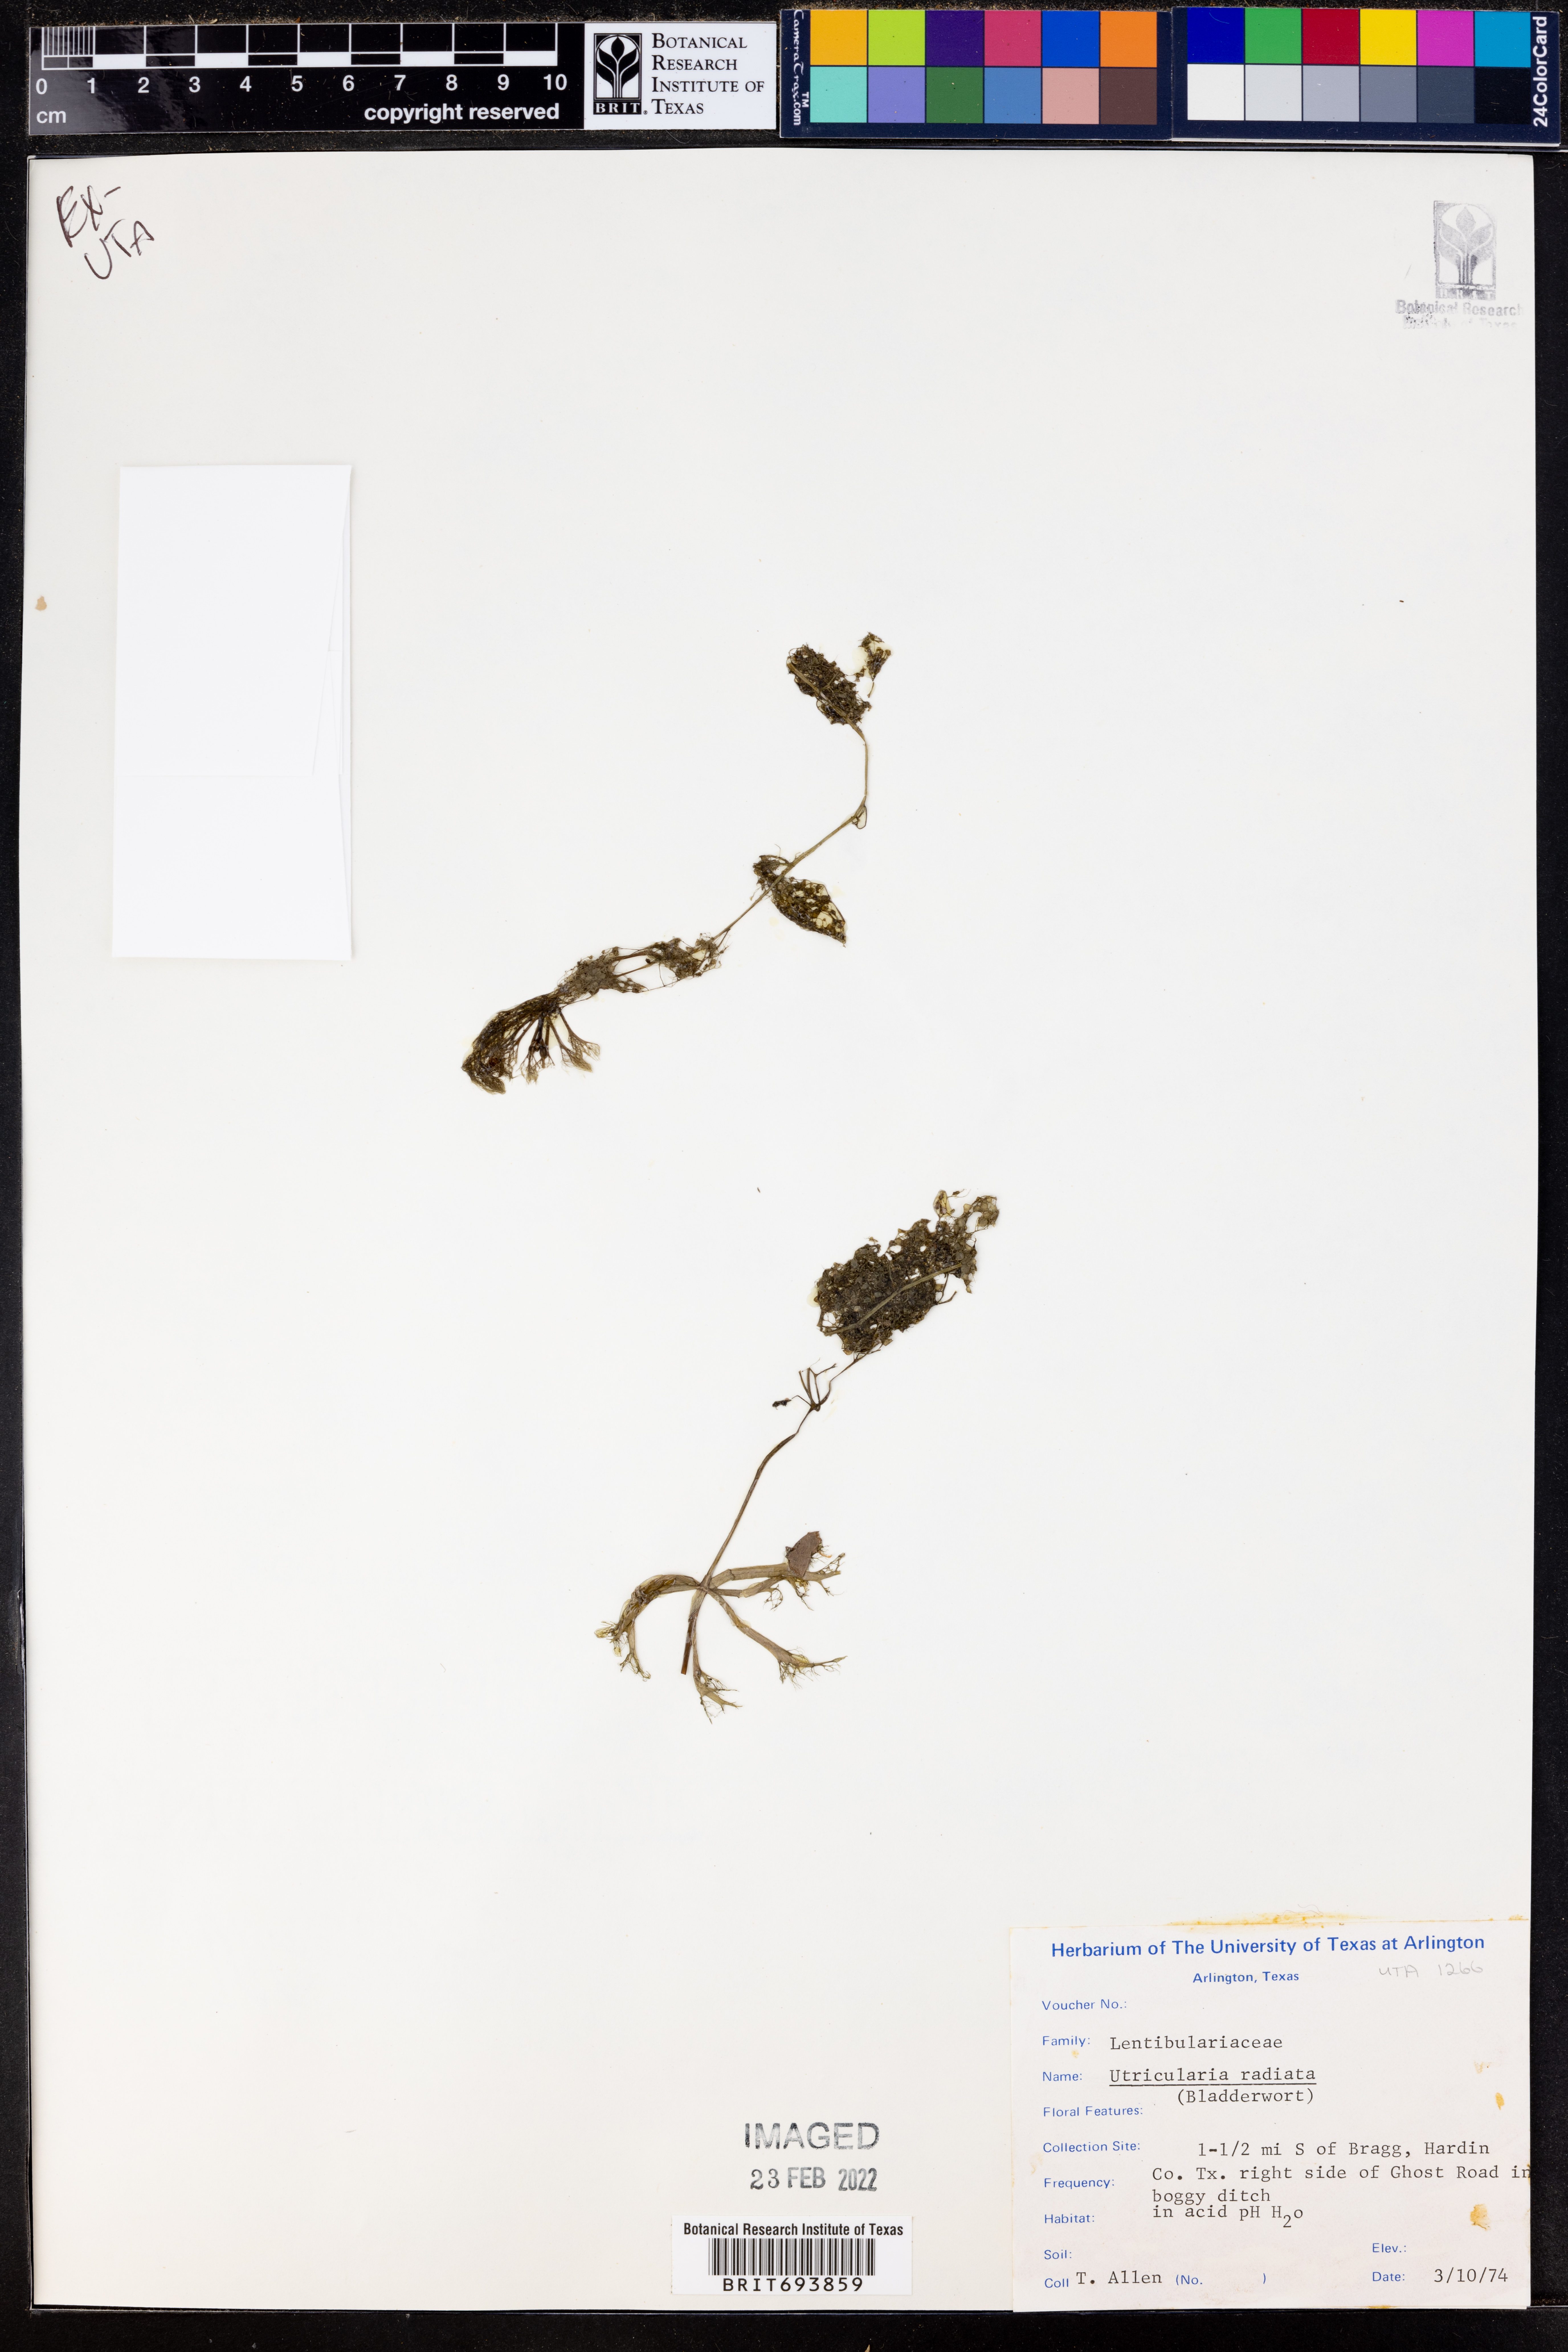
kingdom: Plantae
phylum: Tracheophyta
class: Magnoliopsida
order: Lamiales
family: Lentibulariaceae
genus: Utricularia
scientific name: Utricularia radiata
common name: Floating bladderwort
